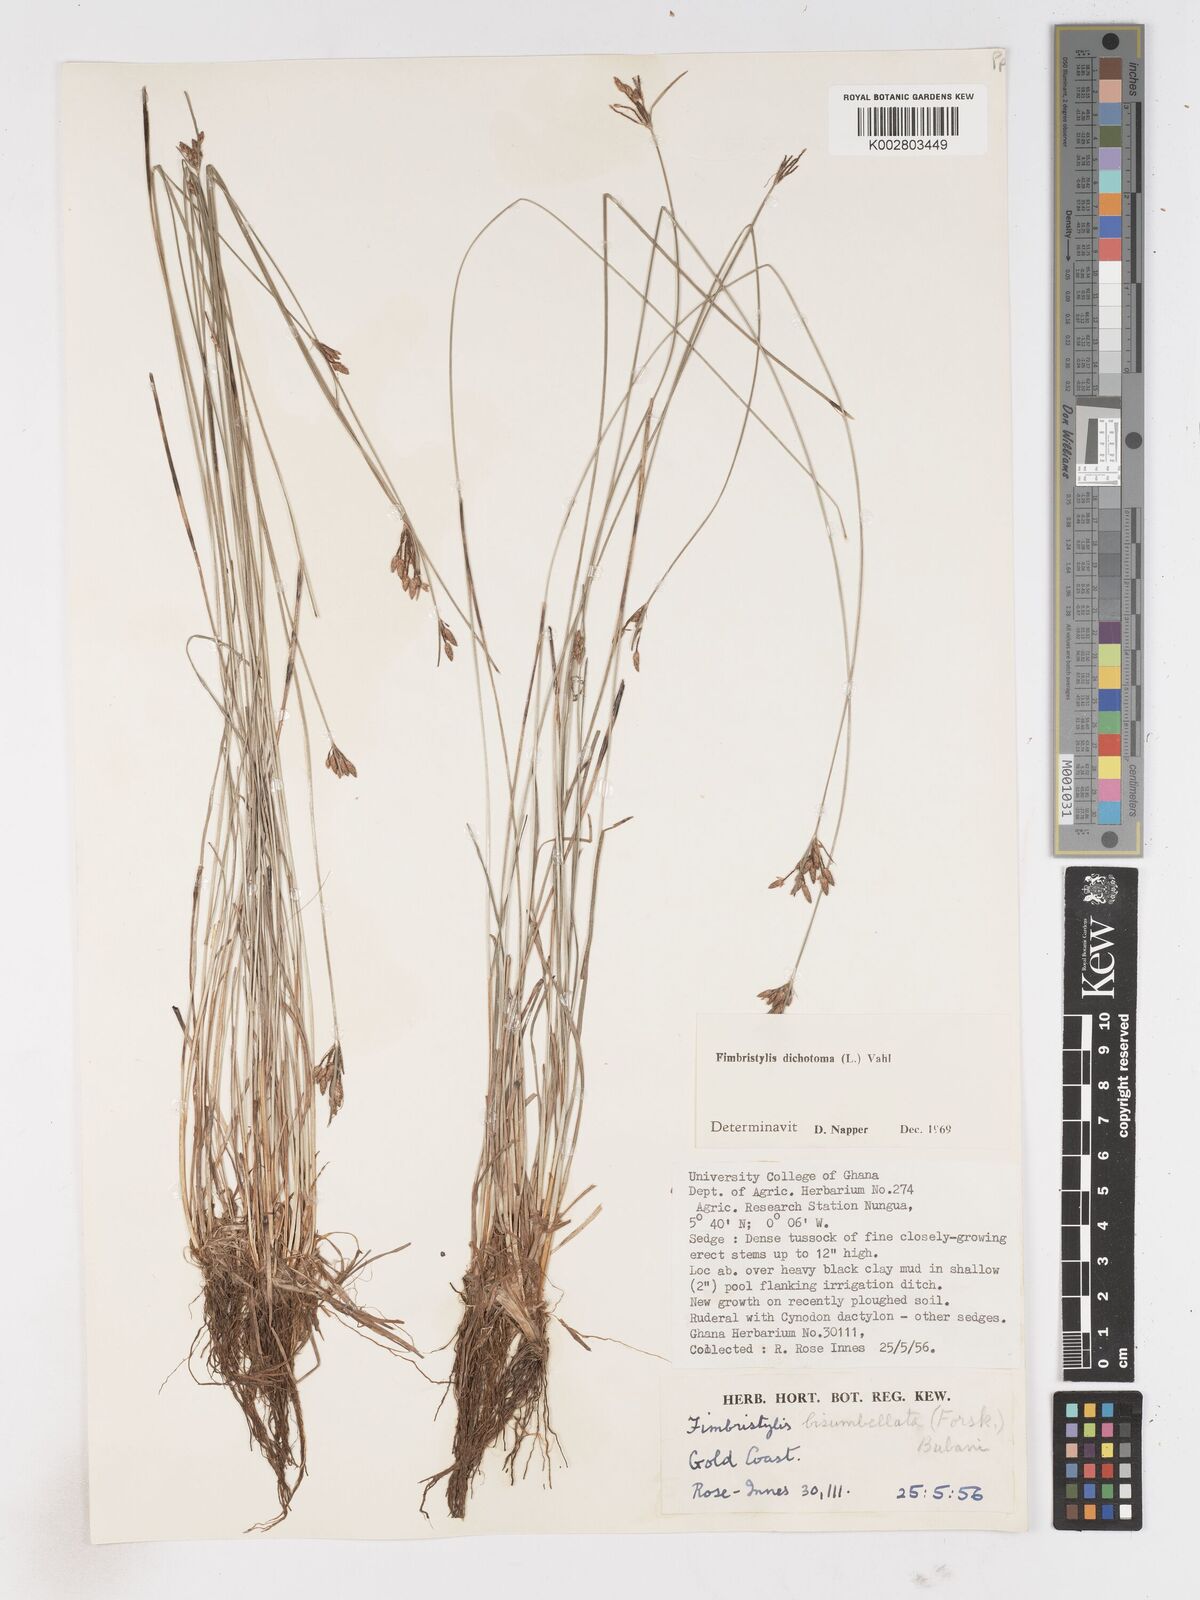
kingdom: Plantae
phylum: Tracheophyta
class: Liliopsida
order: Poales
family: Cyperaceae
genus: Fimbristylis
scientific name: Fimbristylis dichotoma
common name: Forked fimbry
